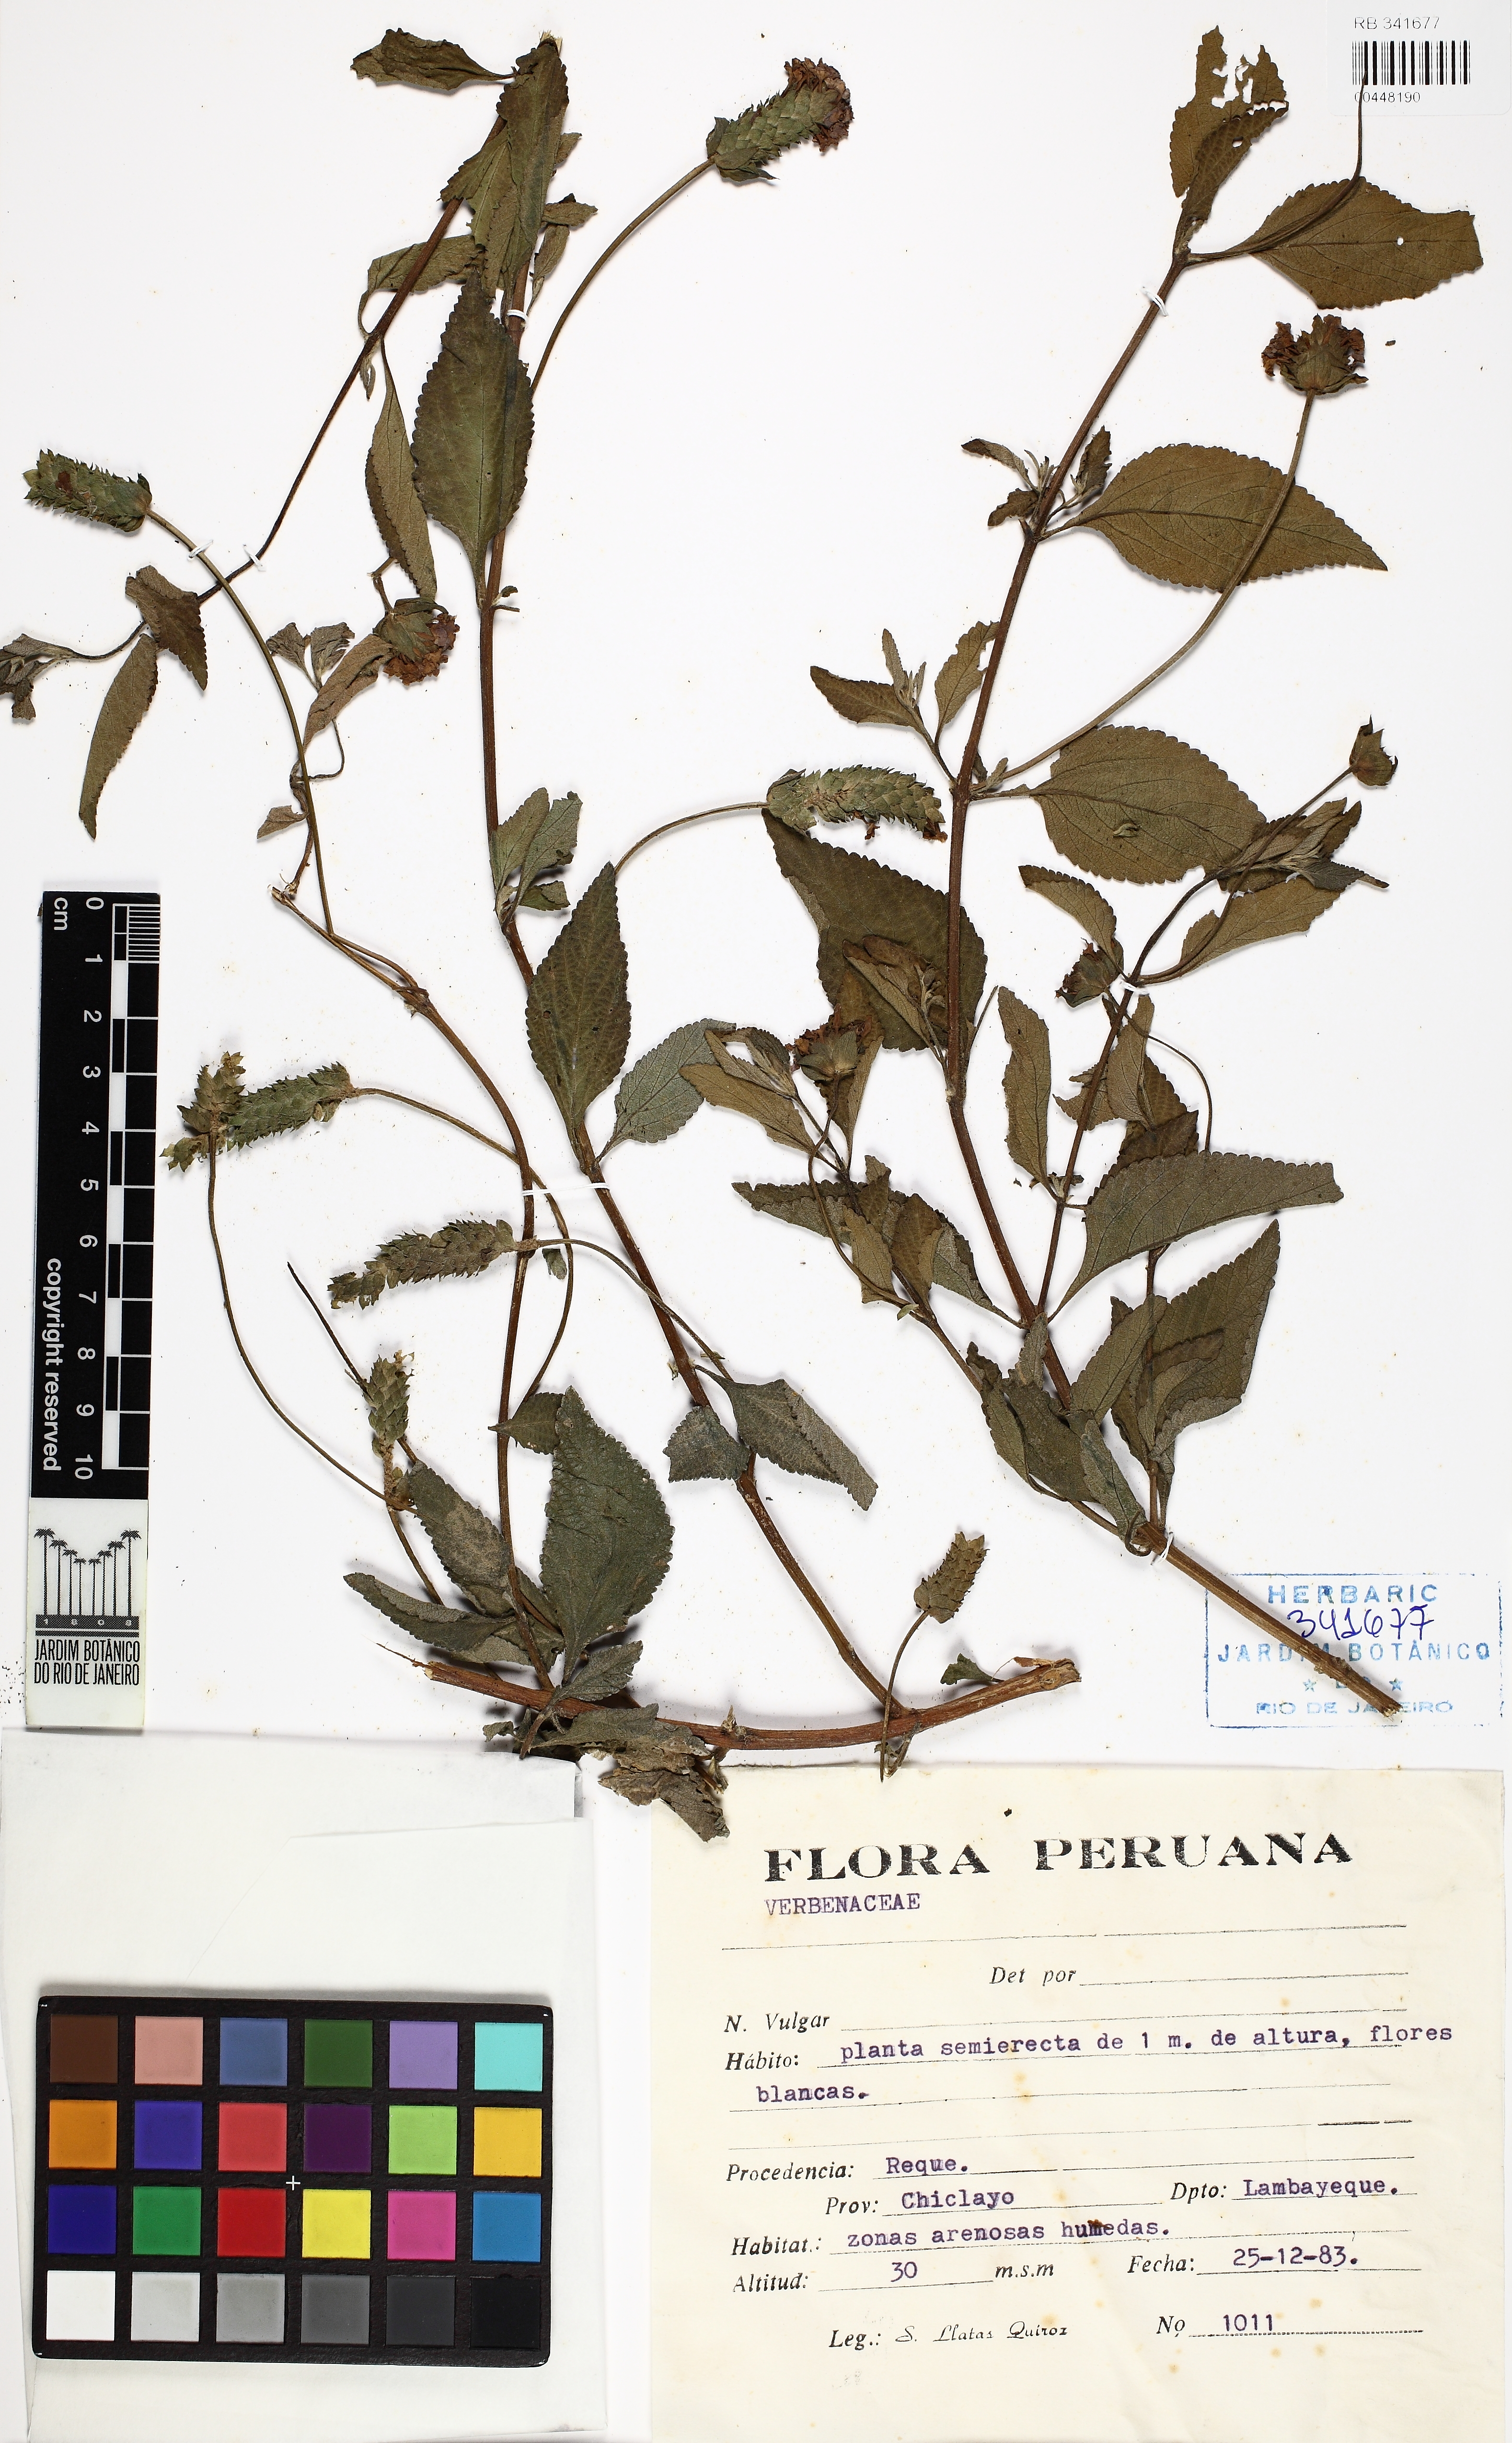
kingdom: Plantae
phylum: Tracheophyta
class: Magnoliopsida
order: Lamiales
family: Verbenaceae
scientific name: Verbenaceae
